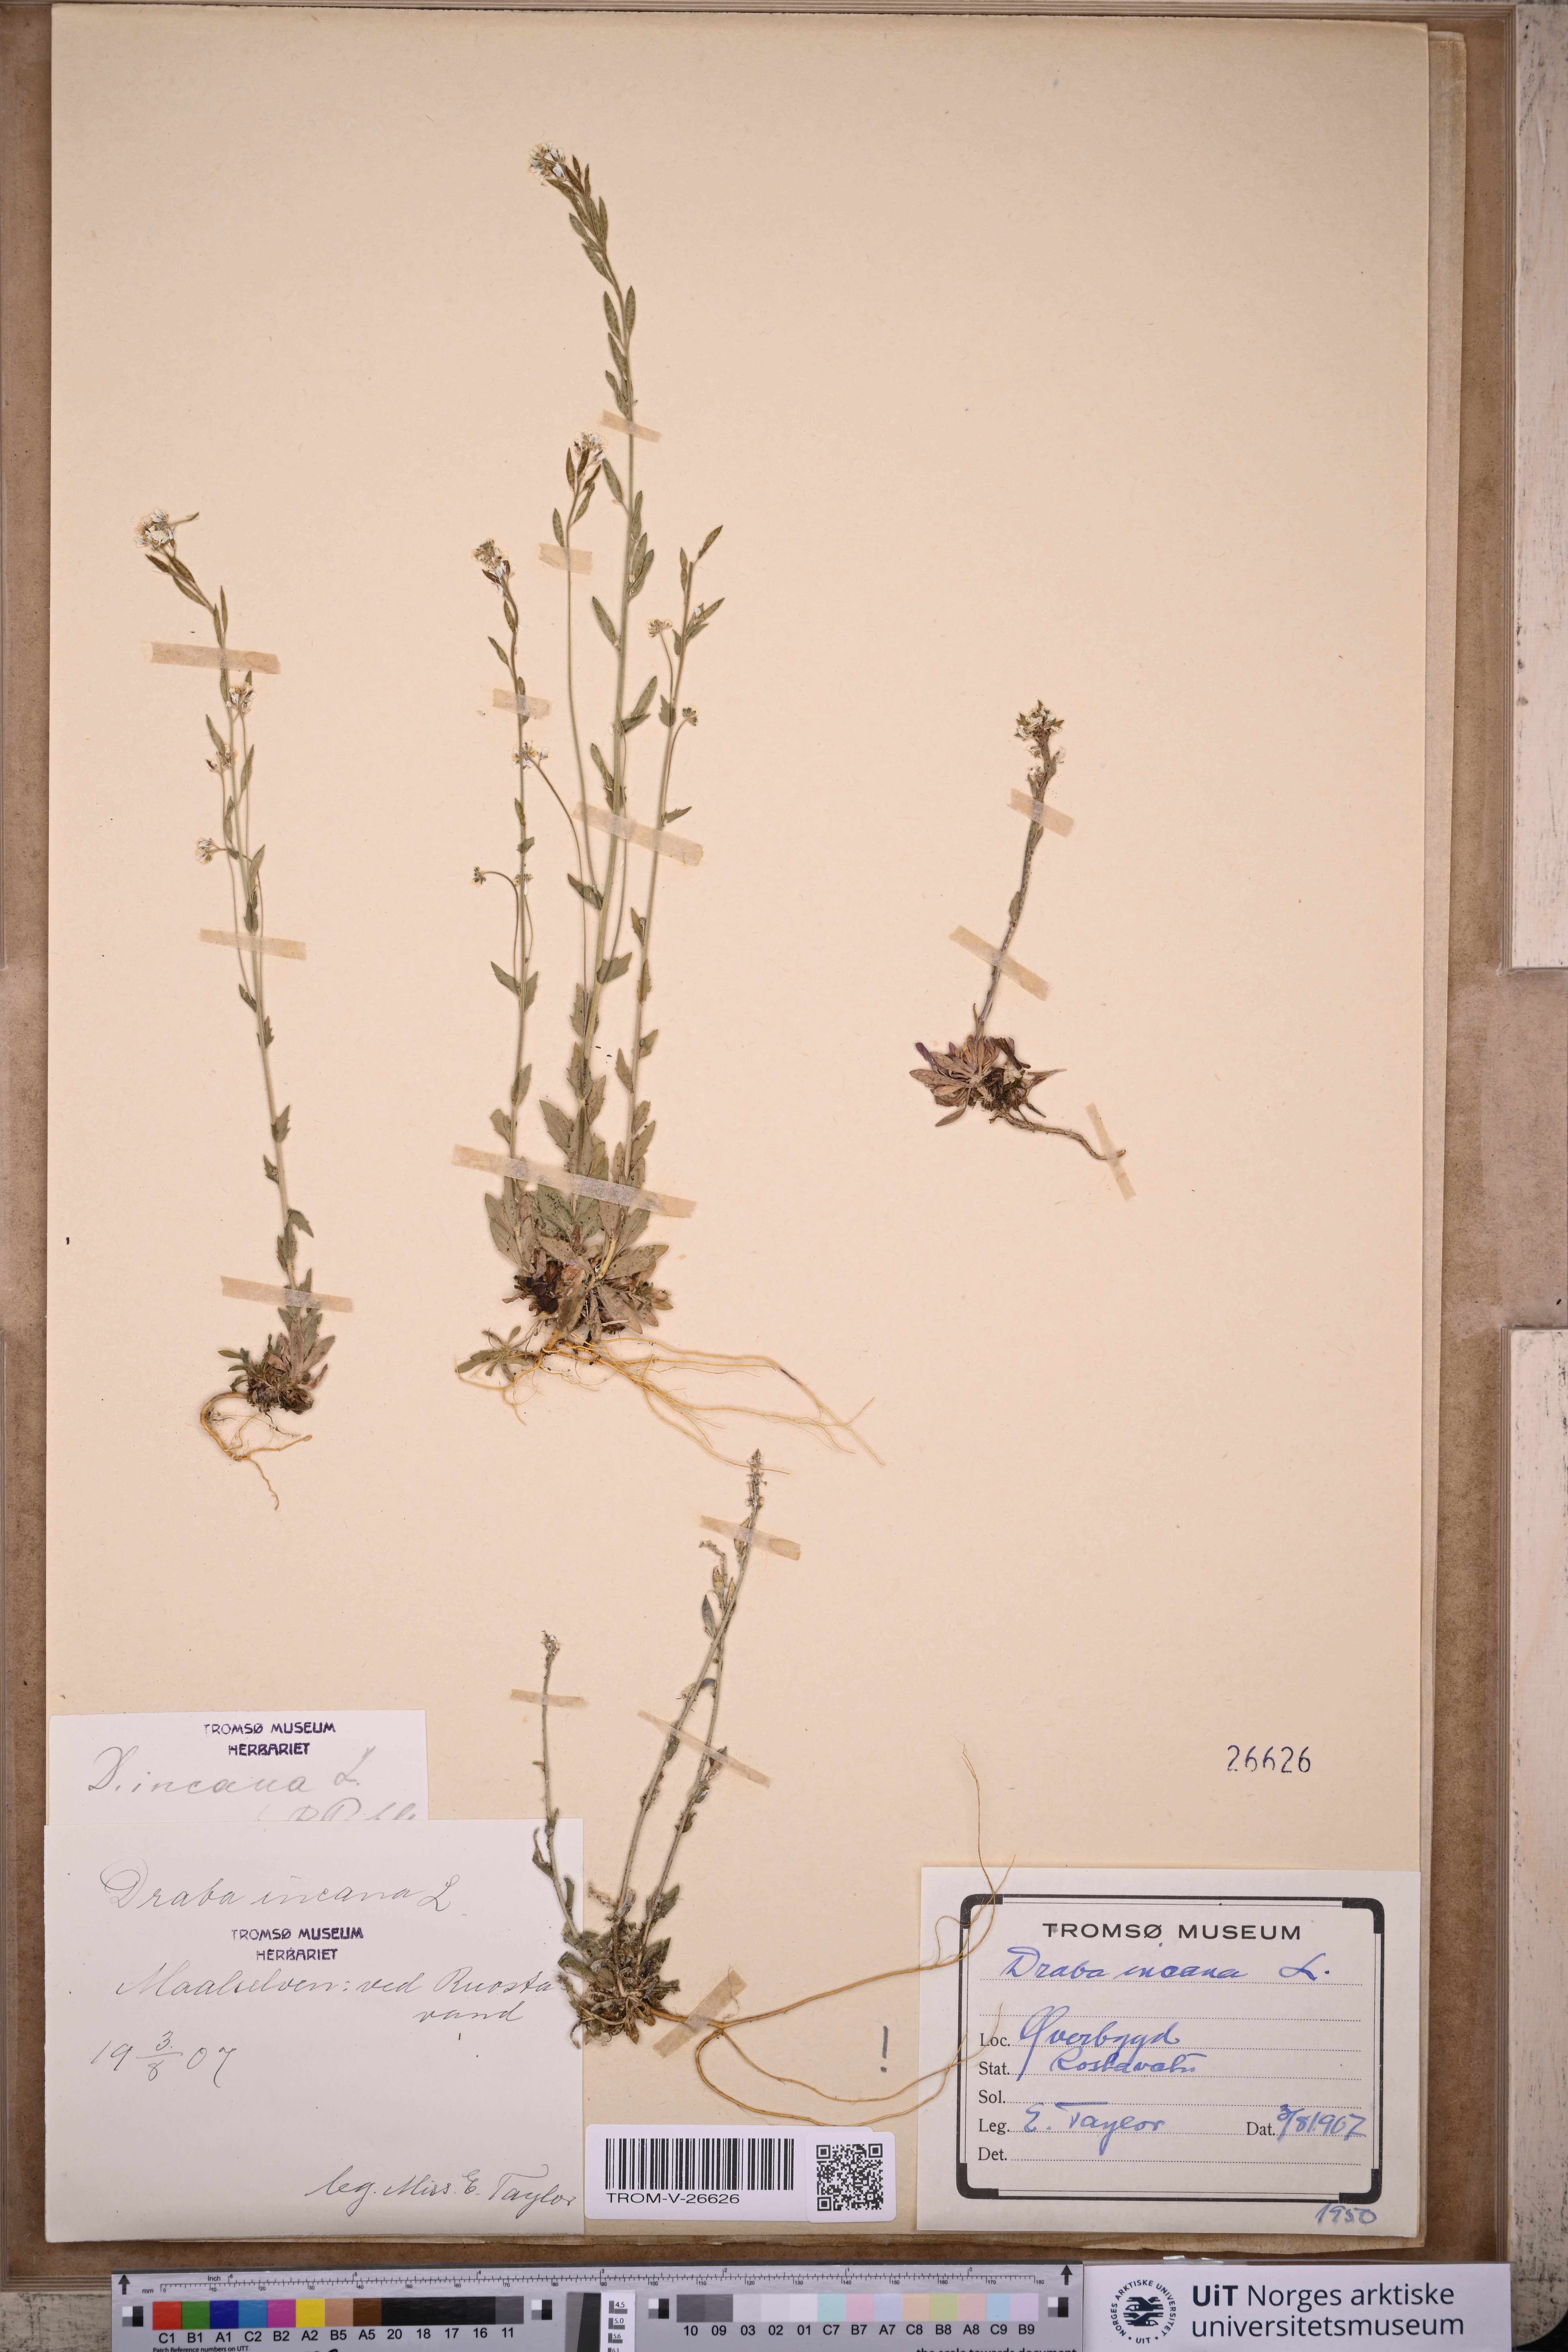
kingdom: Plantae
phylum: Tracheophyta
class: Magnoliopsida
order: Brassicales
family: Brassicaceae
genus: Draba
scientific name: Draba incana
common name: Hoary whitlow-grass
